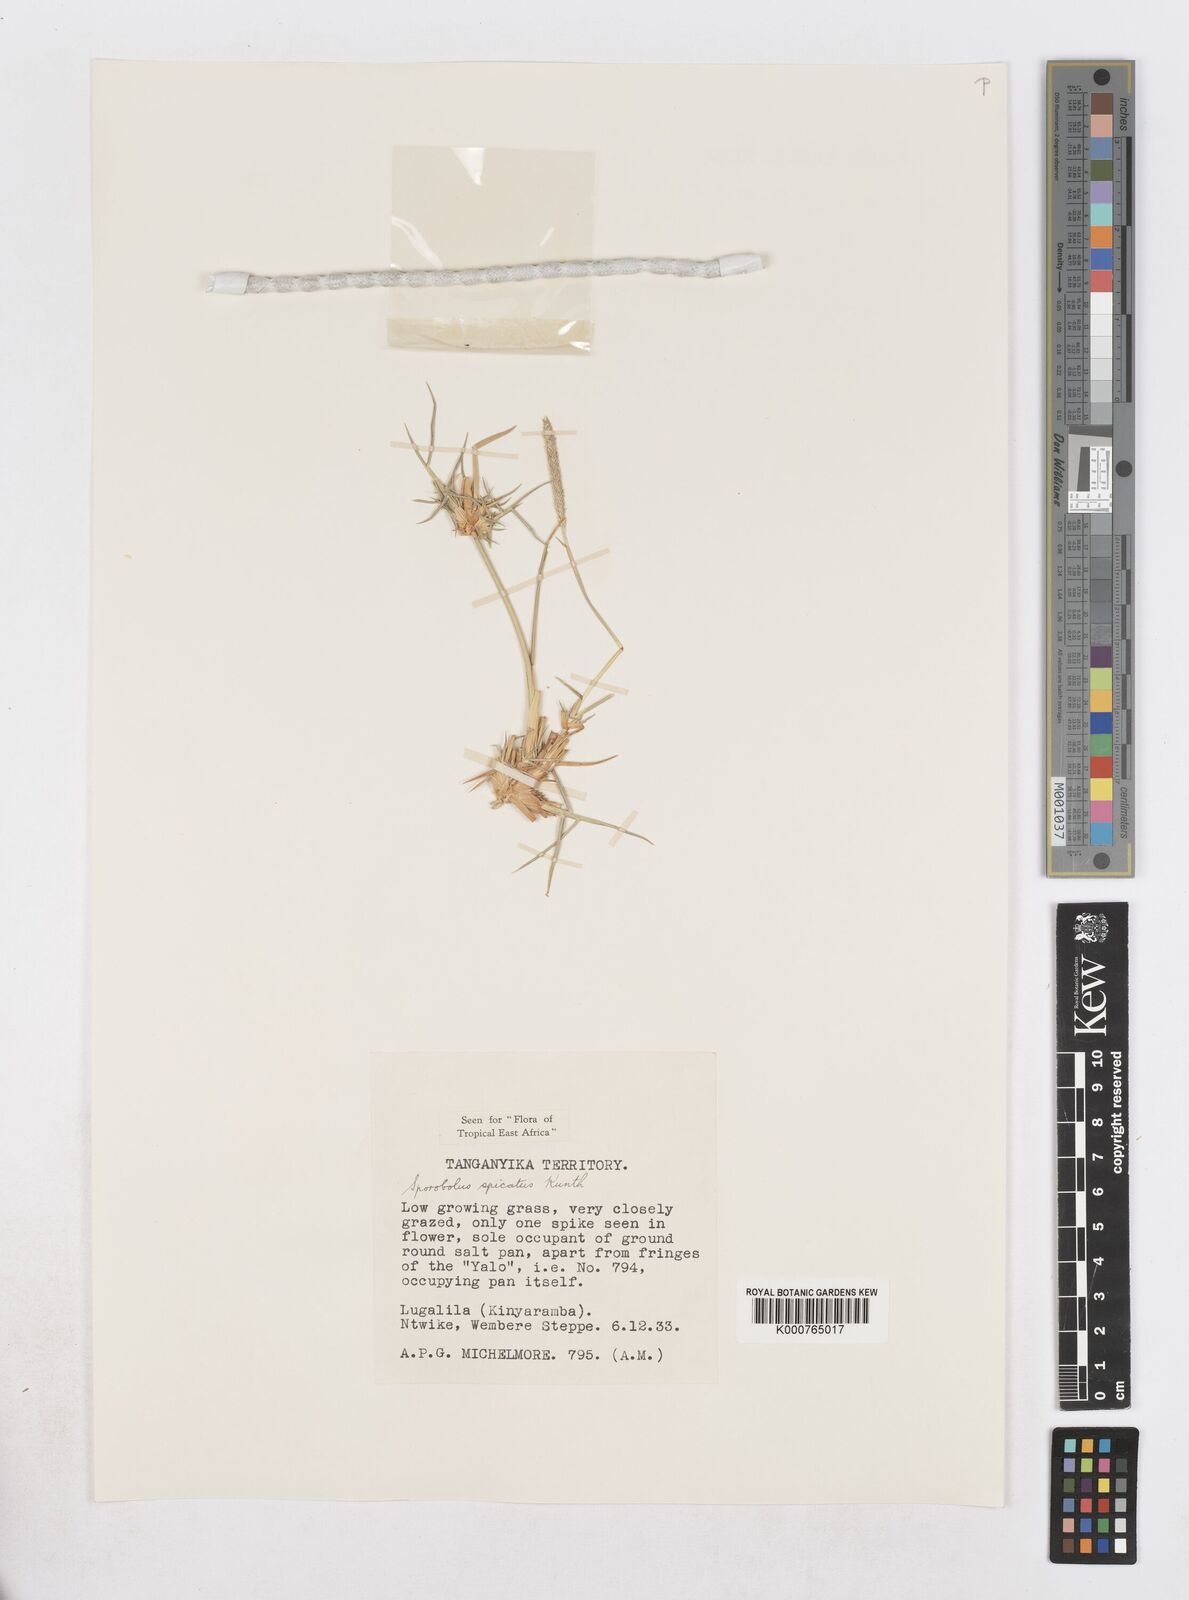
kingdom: Plantae
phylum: Tracheophyta
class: Liliopsida
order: Poales
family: Poaceae
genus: Sporobolus
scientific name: Sporobolus spicatus
